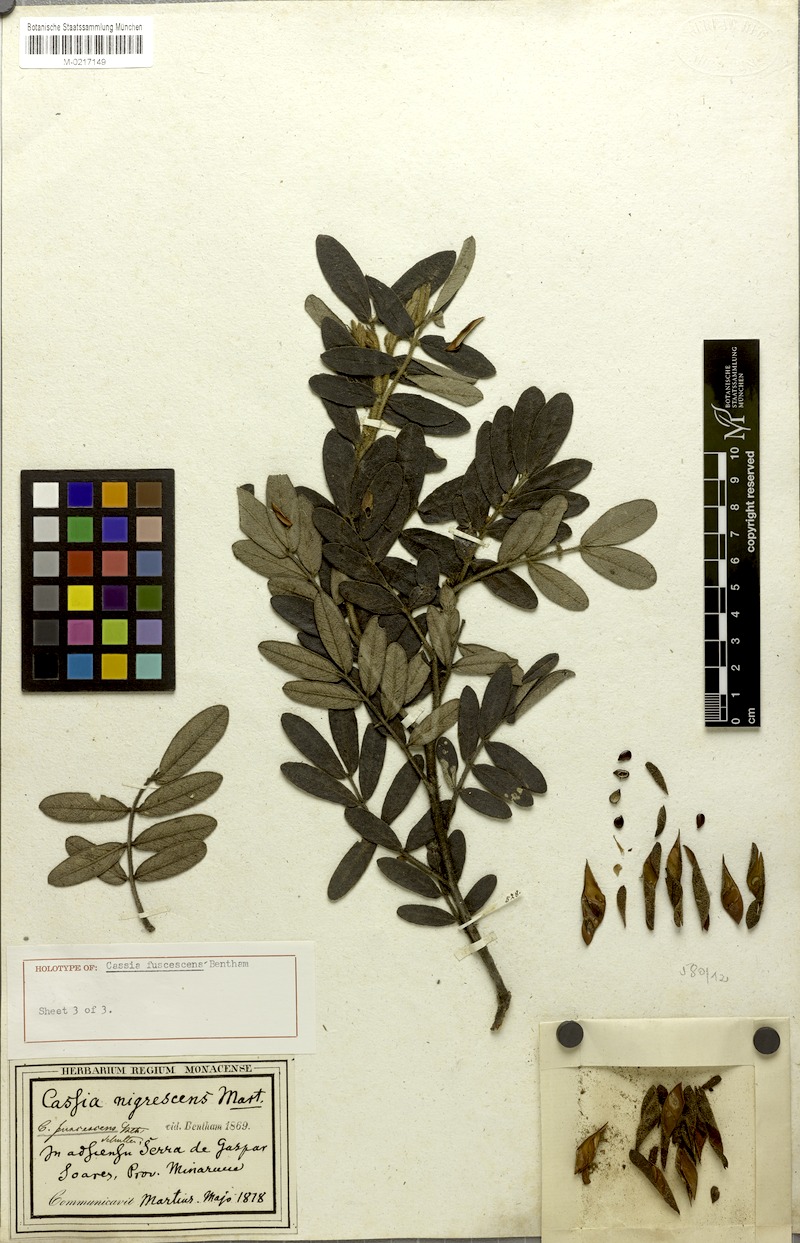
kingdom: Plantae
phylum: Tracheophyta
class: Magnoliopsida
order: Fabales
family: Fabaceae
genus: Cassia
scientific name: Cassia
